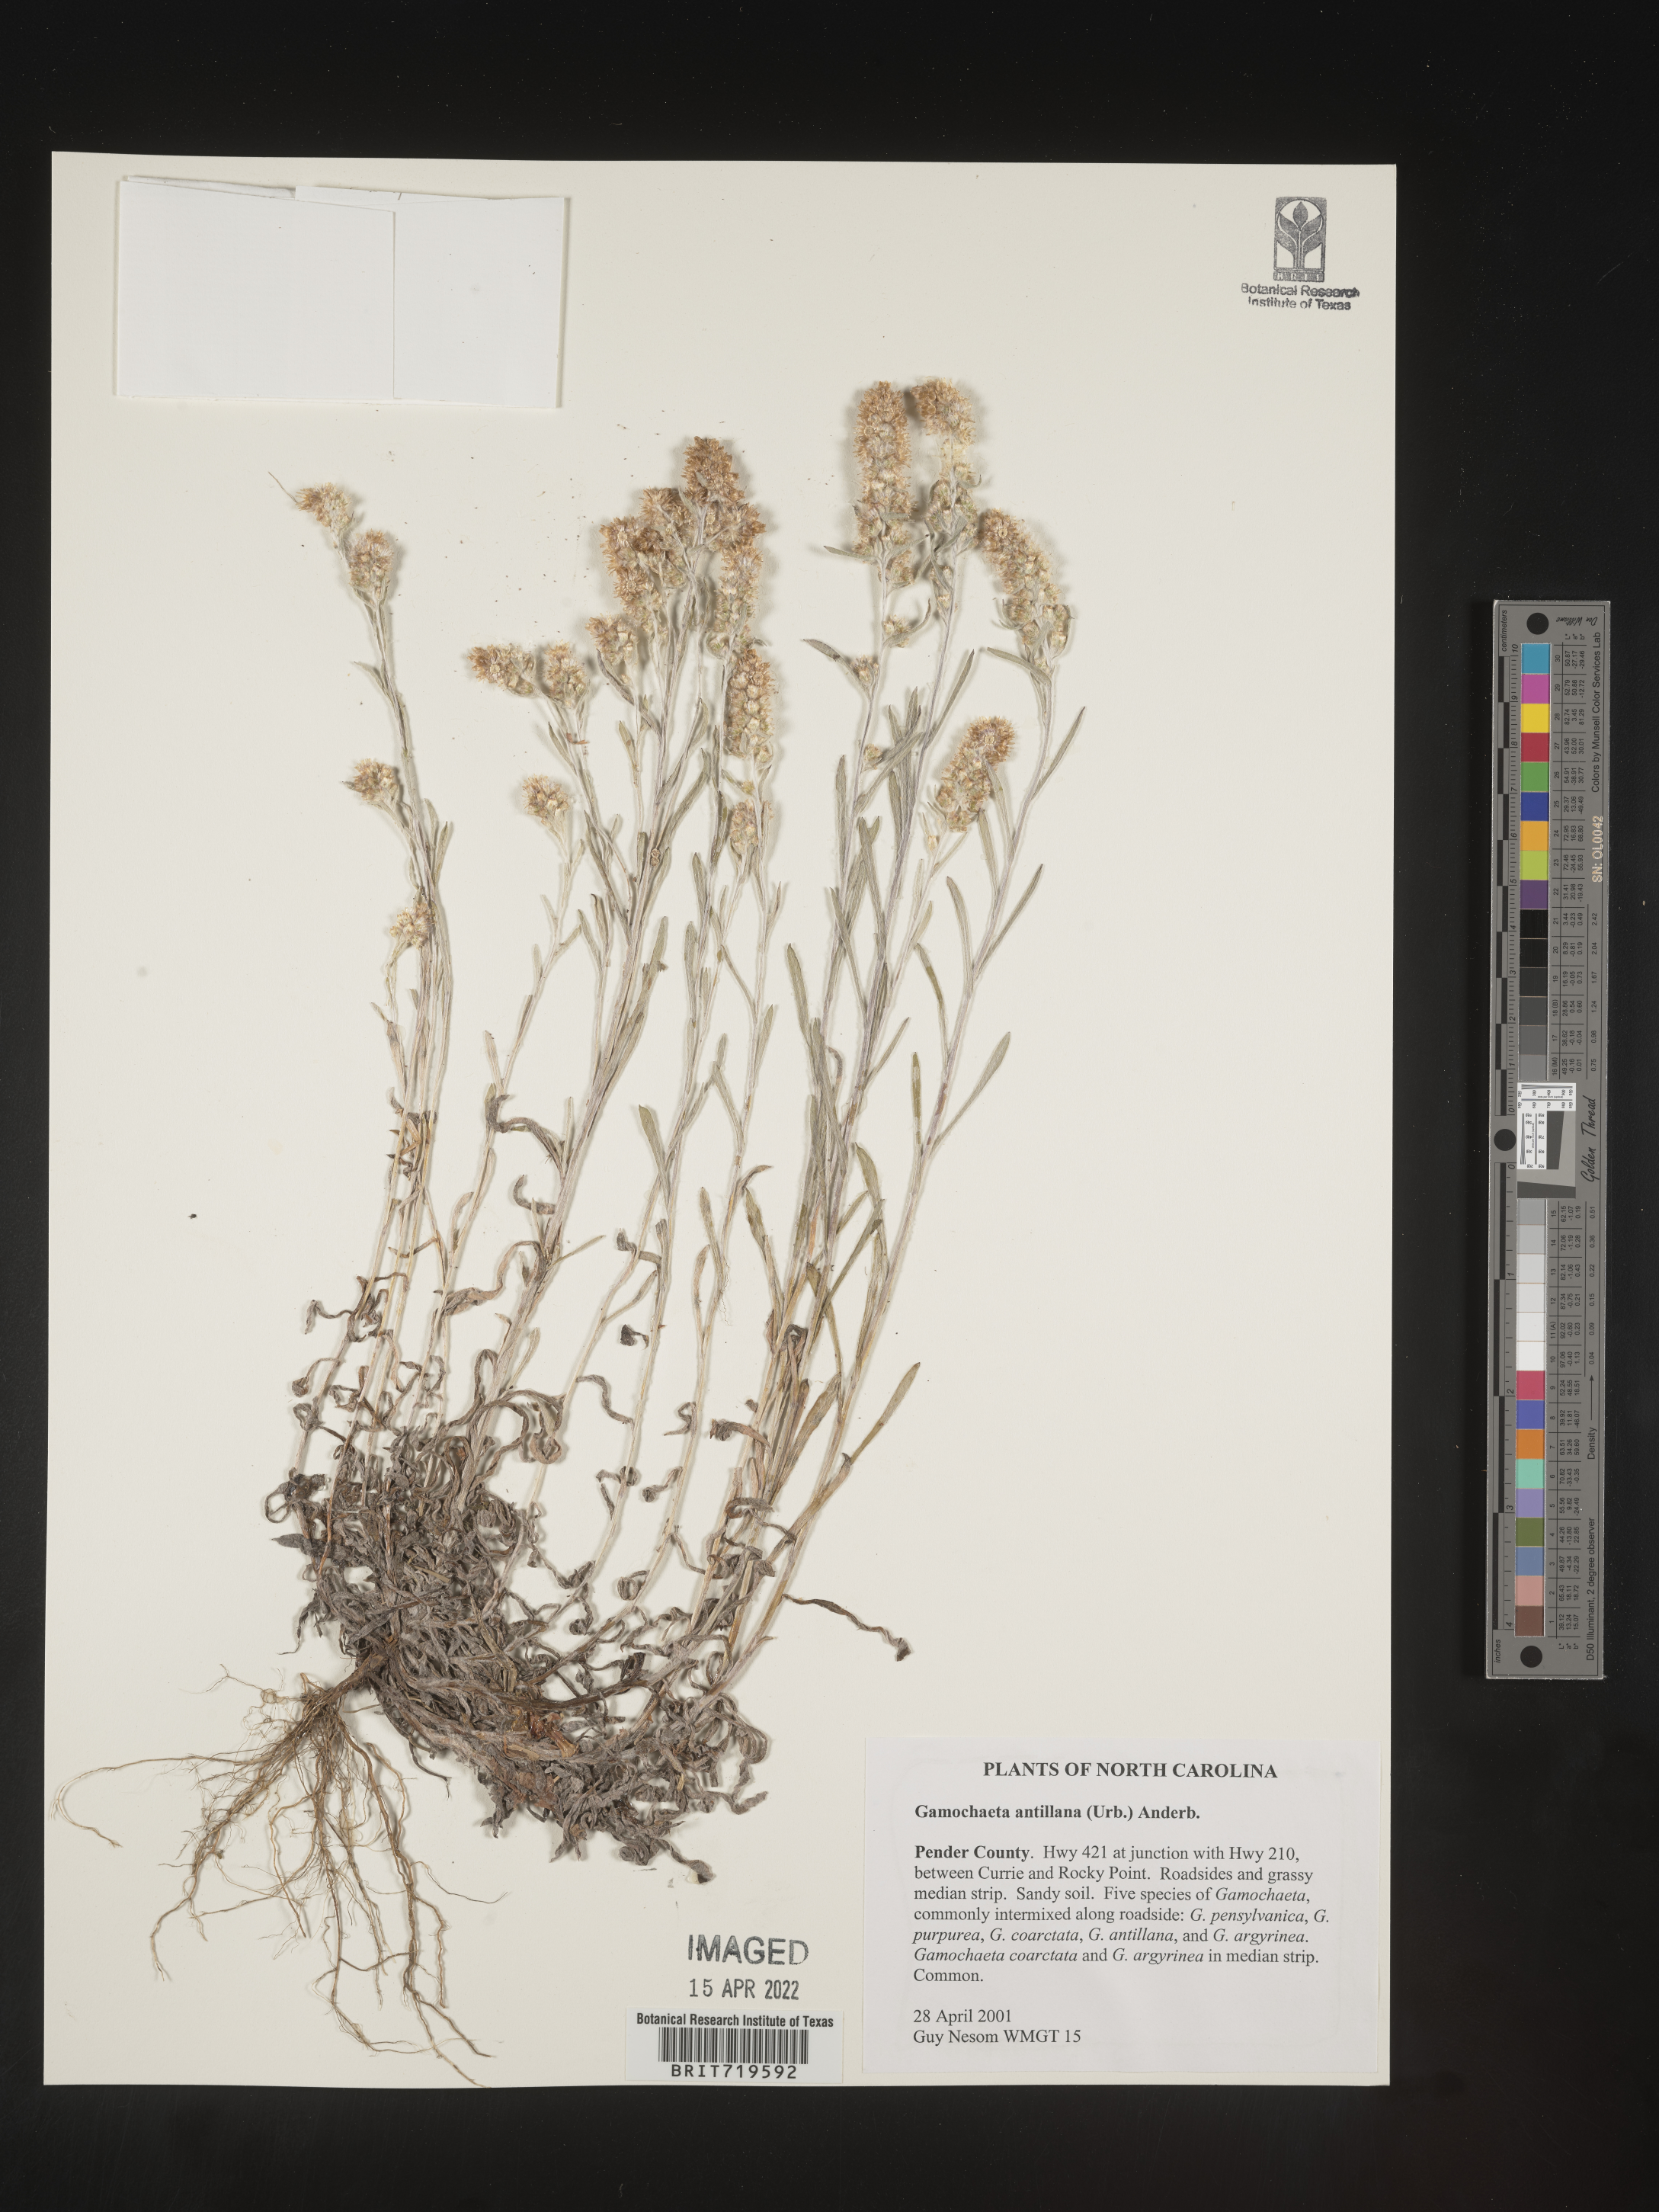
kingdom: Plantae
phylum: Tracheophyta
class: Magnoliopsida
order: Asterales
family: Asteraceae
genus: Gamochaeta
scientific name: Gamochaeta antillana
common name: Delicate everlasting
